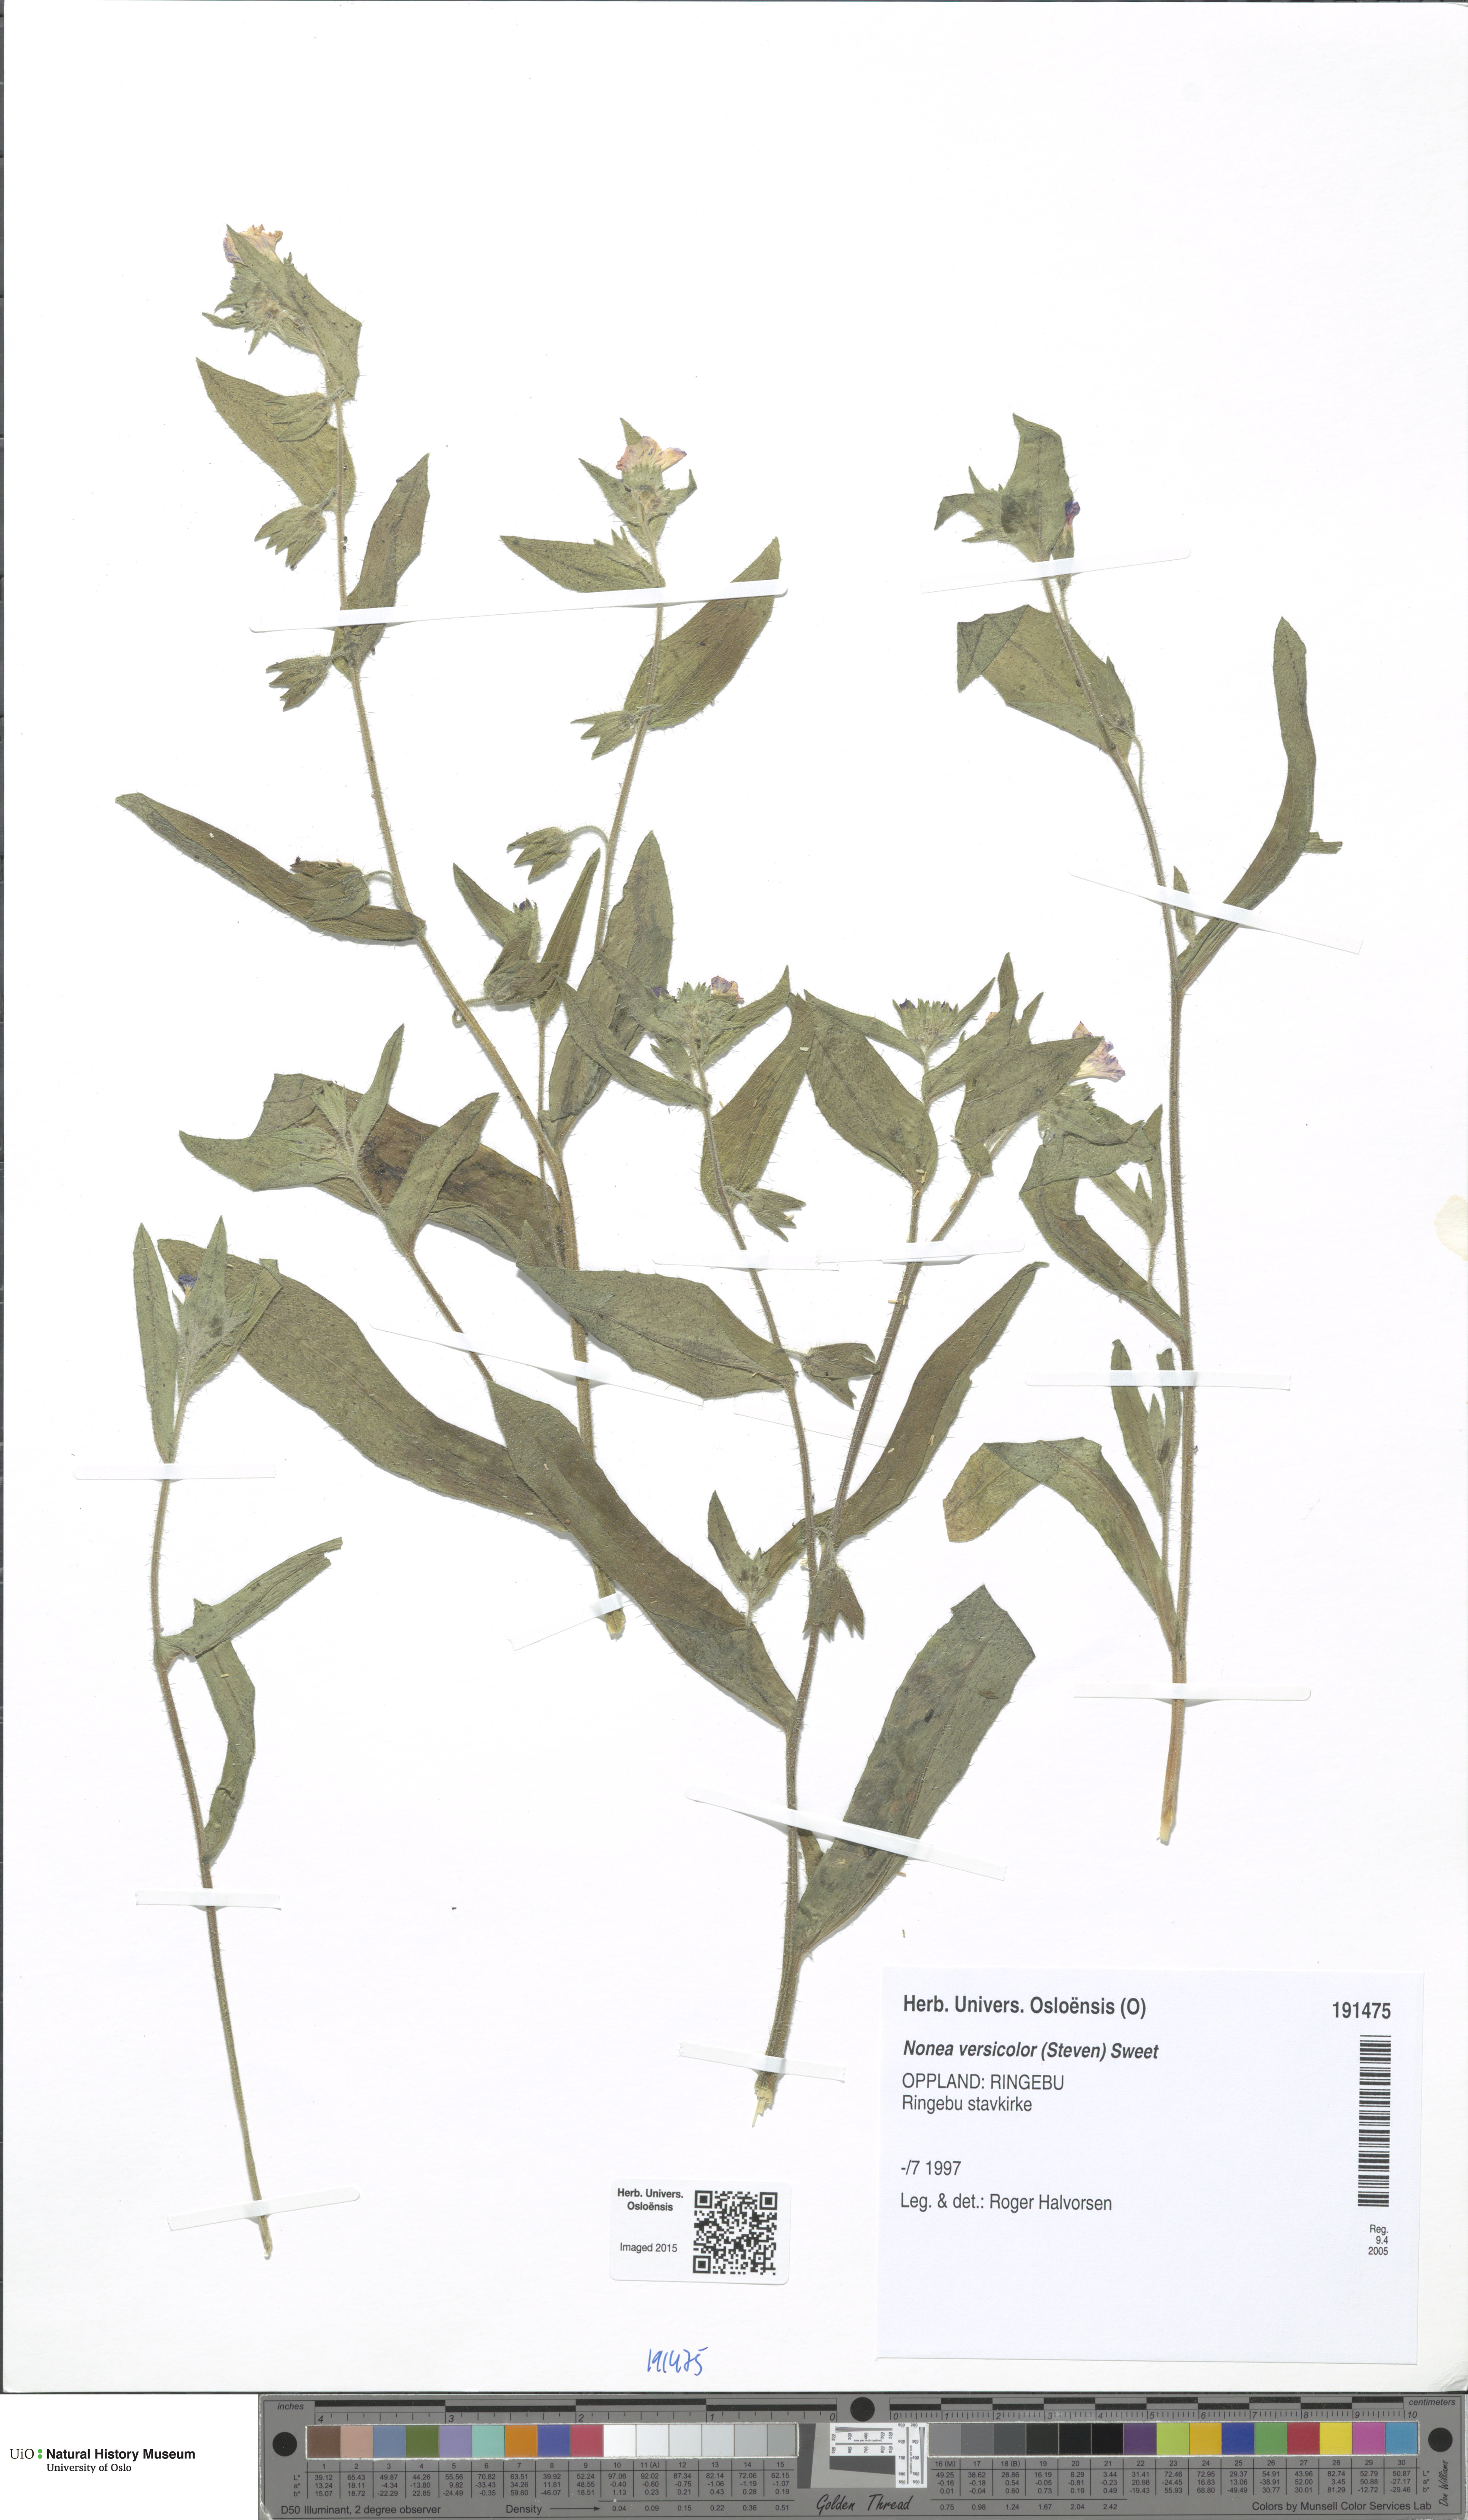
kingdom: Plantae
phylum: Tracheophyta
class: Magnoliopsida
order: Boraginales
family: Boraginaceae
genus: Nonea
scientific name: Nonea versicolor
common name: Varied monkswort
